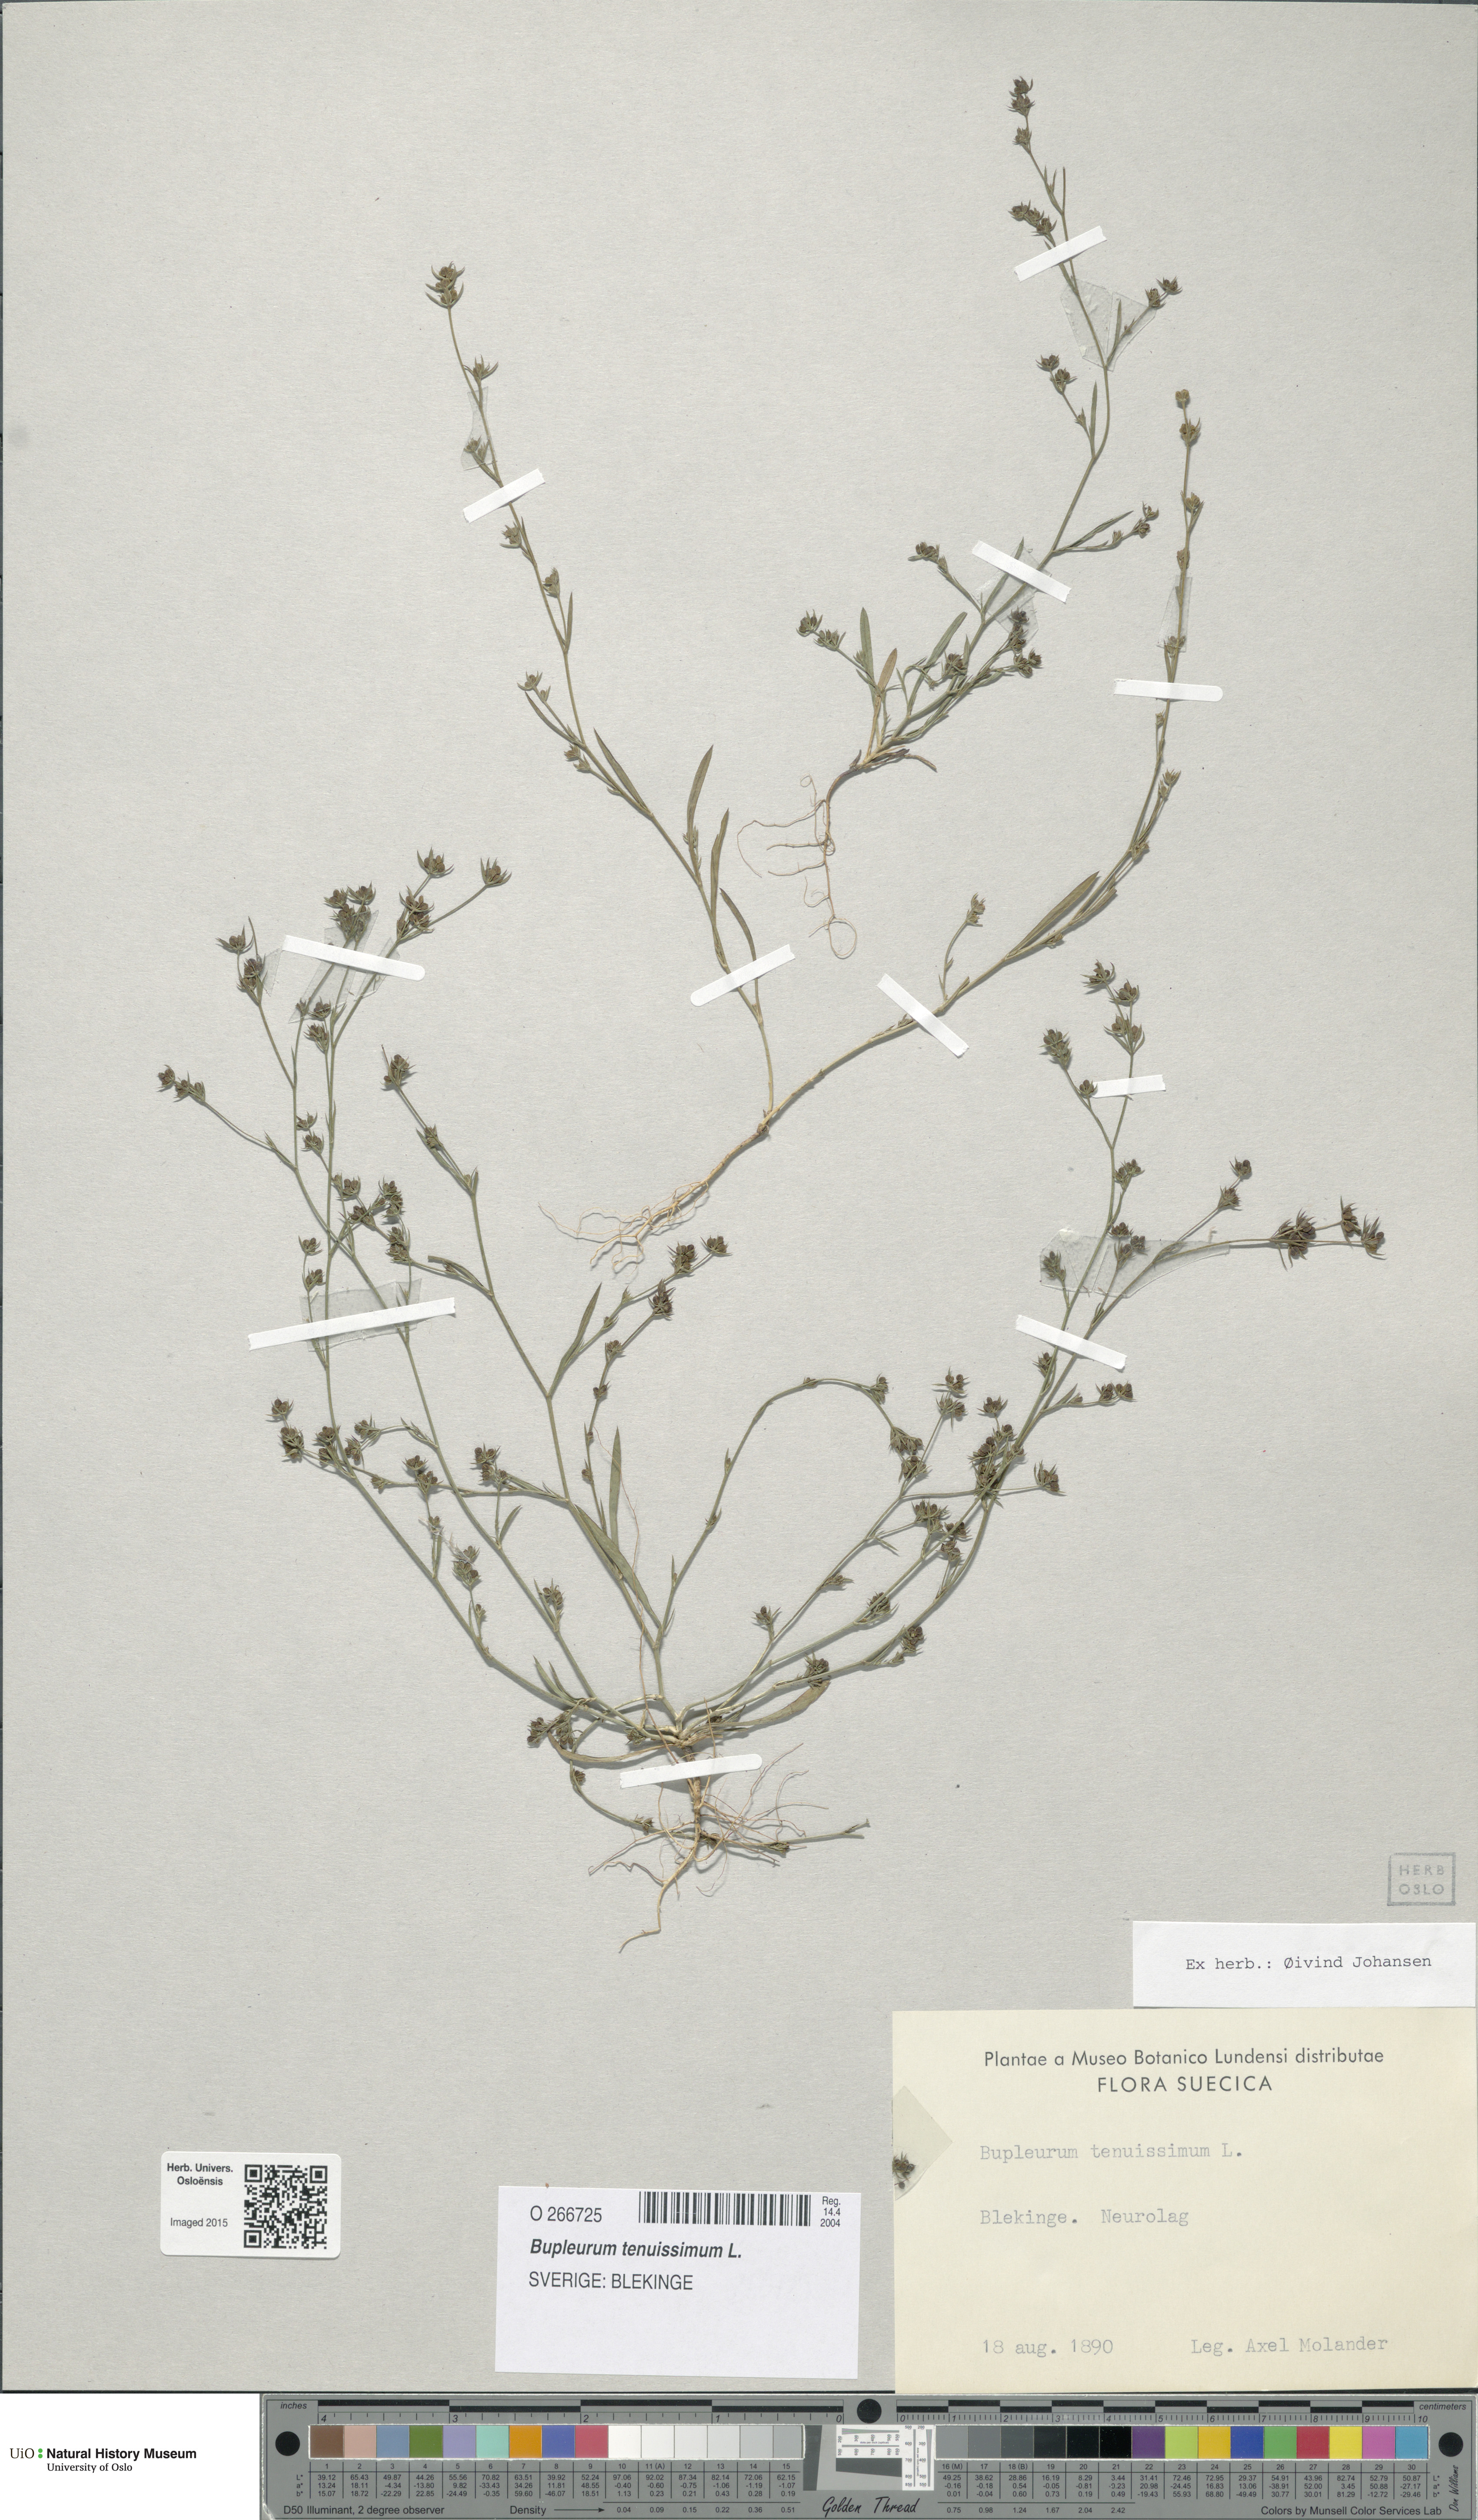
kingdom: Plantae
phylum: Tracheophyta
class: Magnoliopsida
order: Apiales
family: Apiaceae
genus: Bupleurum
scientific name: Bupleurum tenuissimum
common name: Slender hare's-ear
